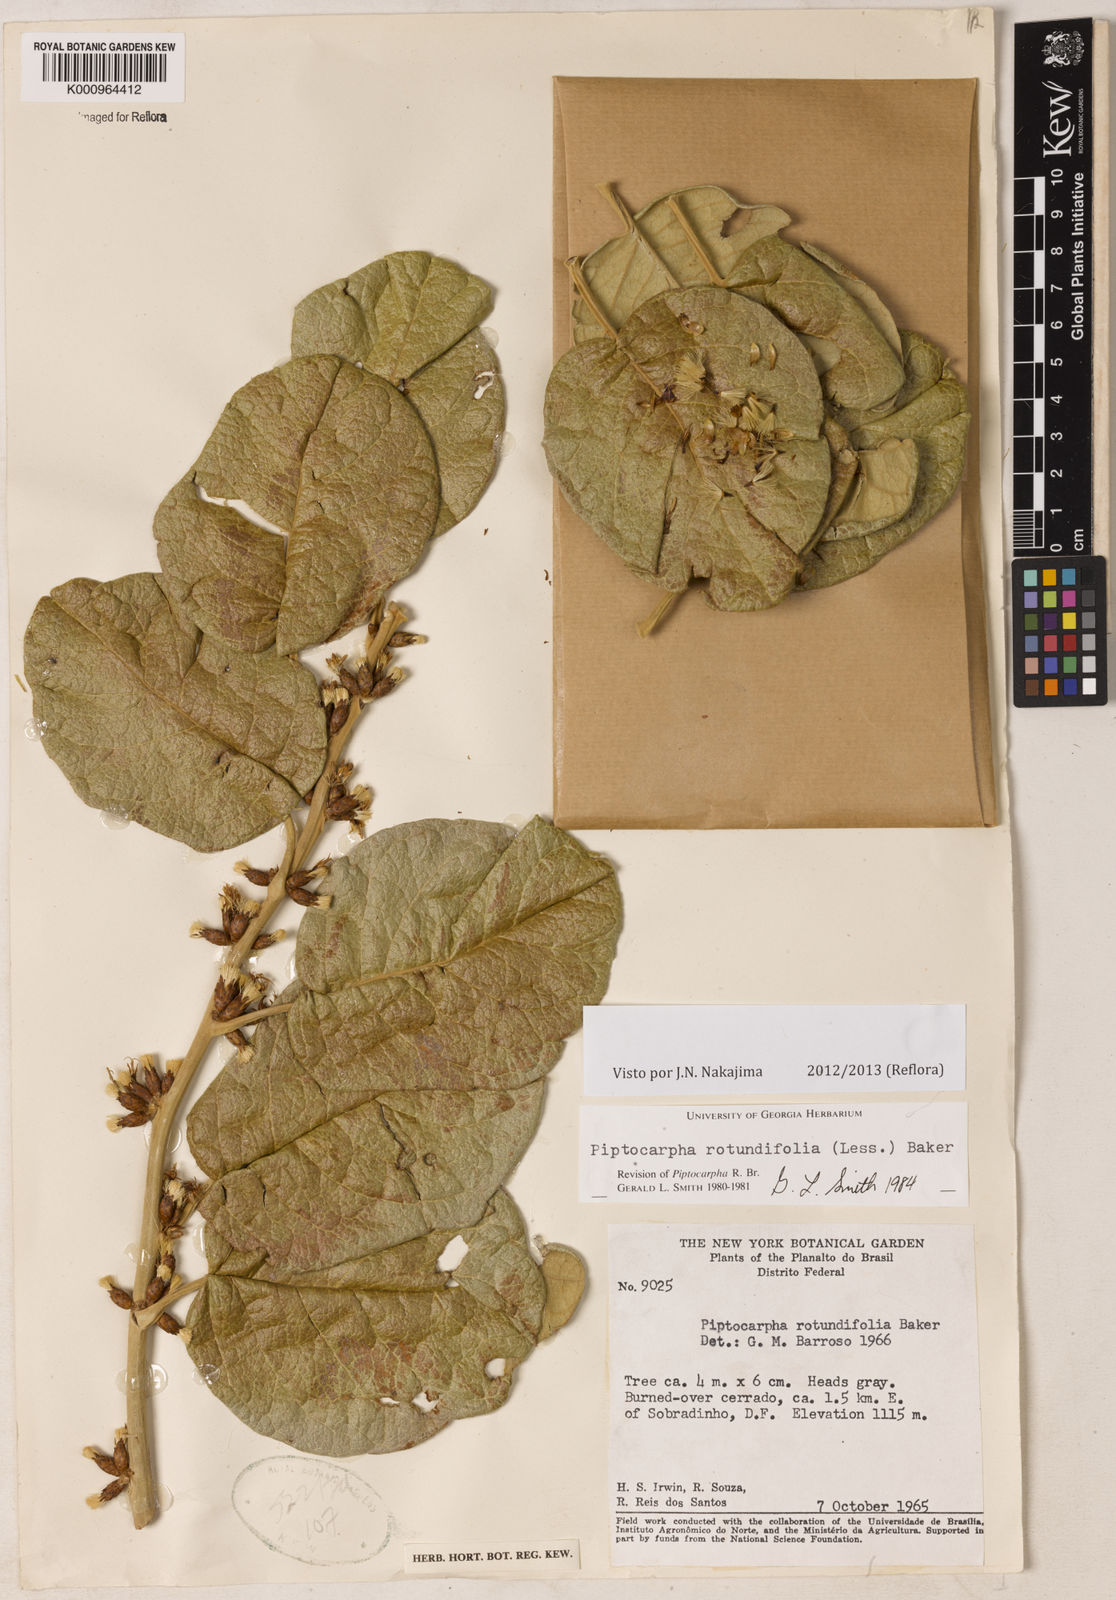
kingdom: Plantae
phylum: Tracheophyta
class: Magnoliopsida
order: Asterales
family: Asteraceae
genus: Piptocarpha
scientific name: Piptocarpha rotundifolia
